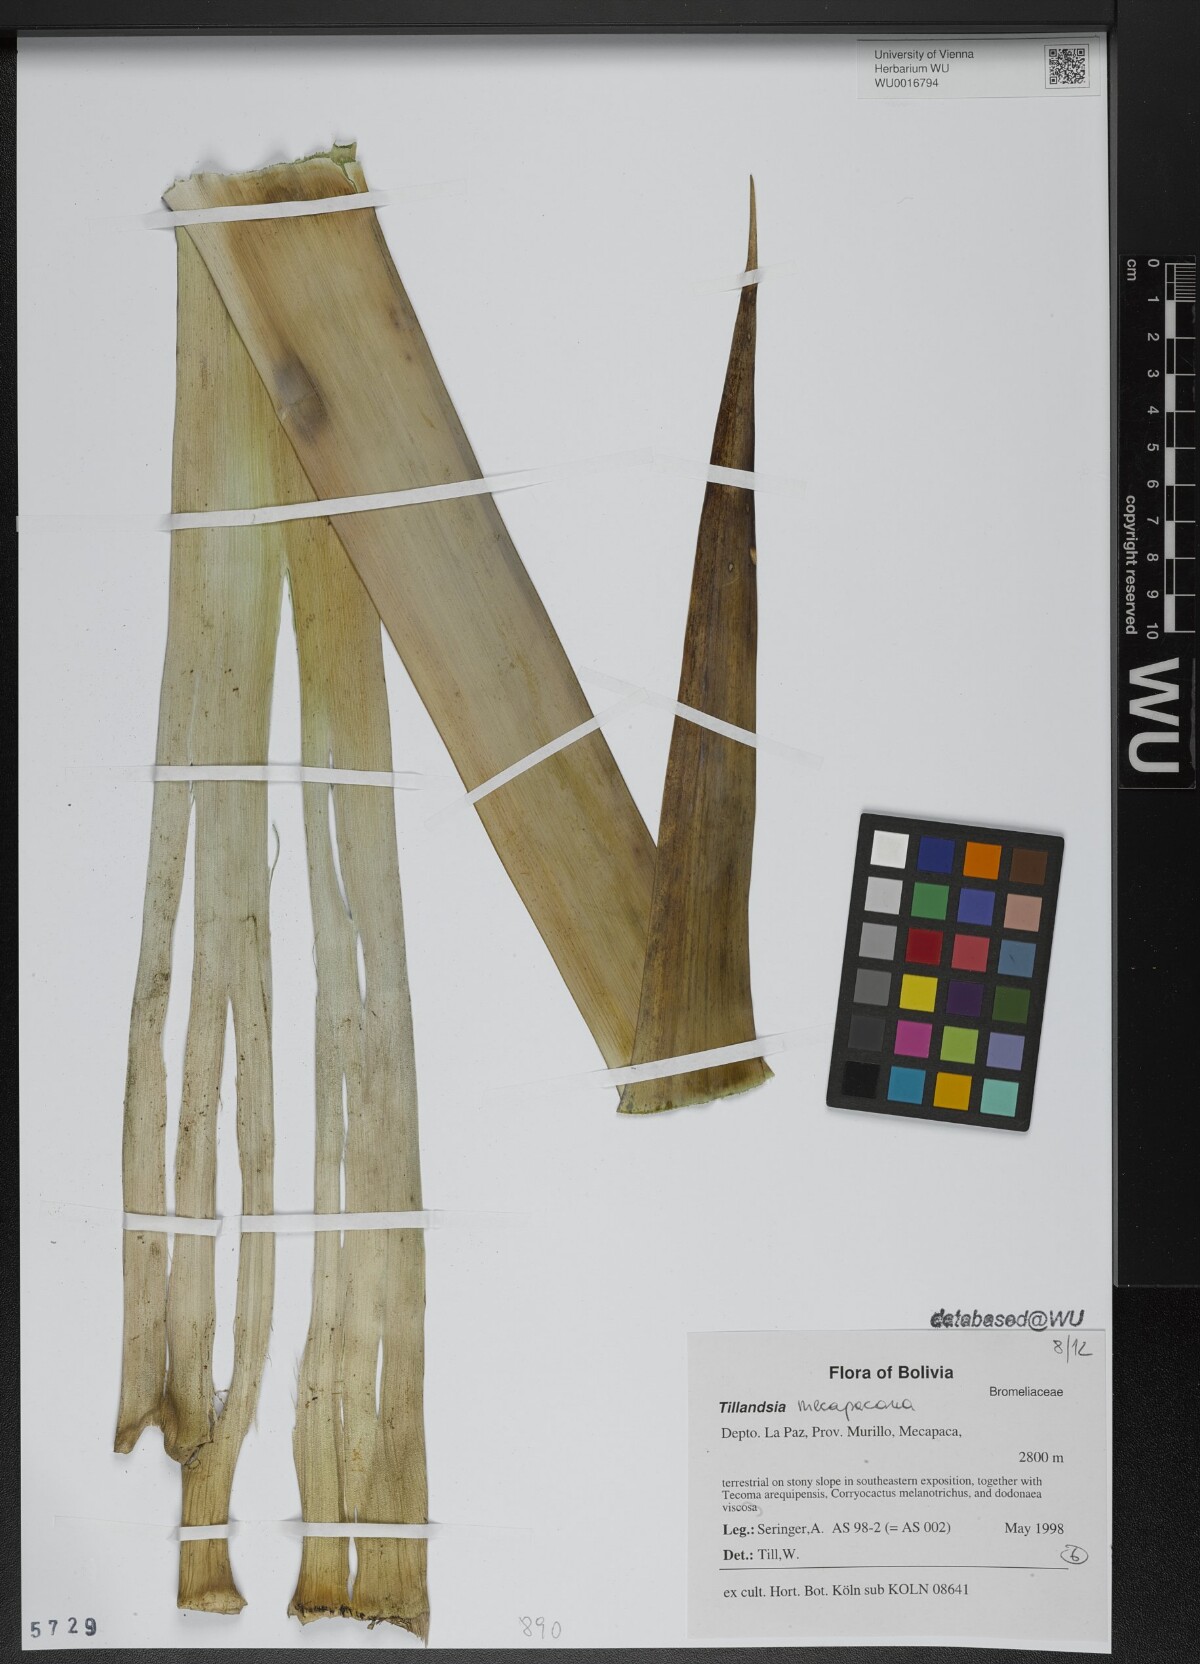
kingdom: Plantae
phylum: Tracheophyta
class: Liliopsida
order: Poales
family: Bromeliaceae
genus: Tillandsia
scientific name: Tillandsia
